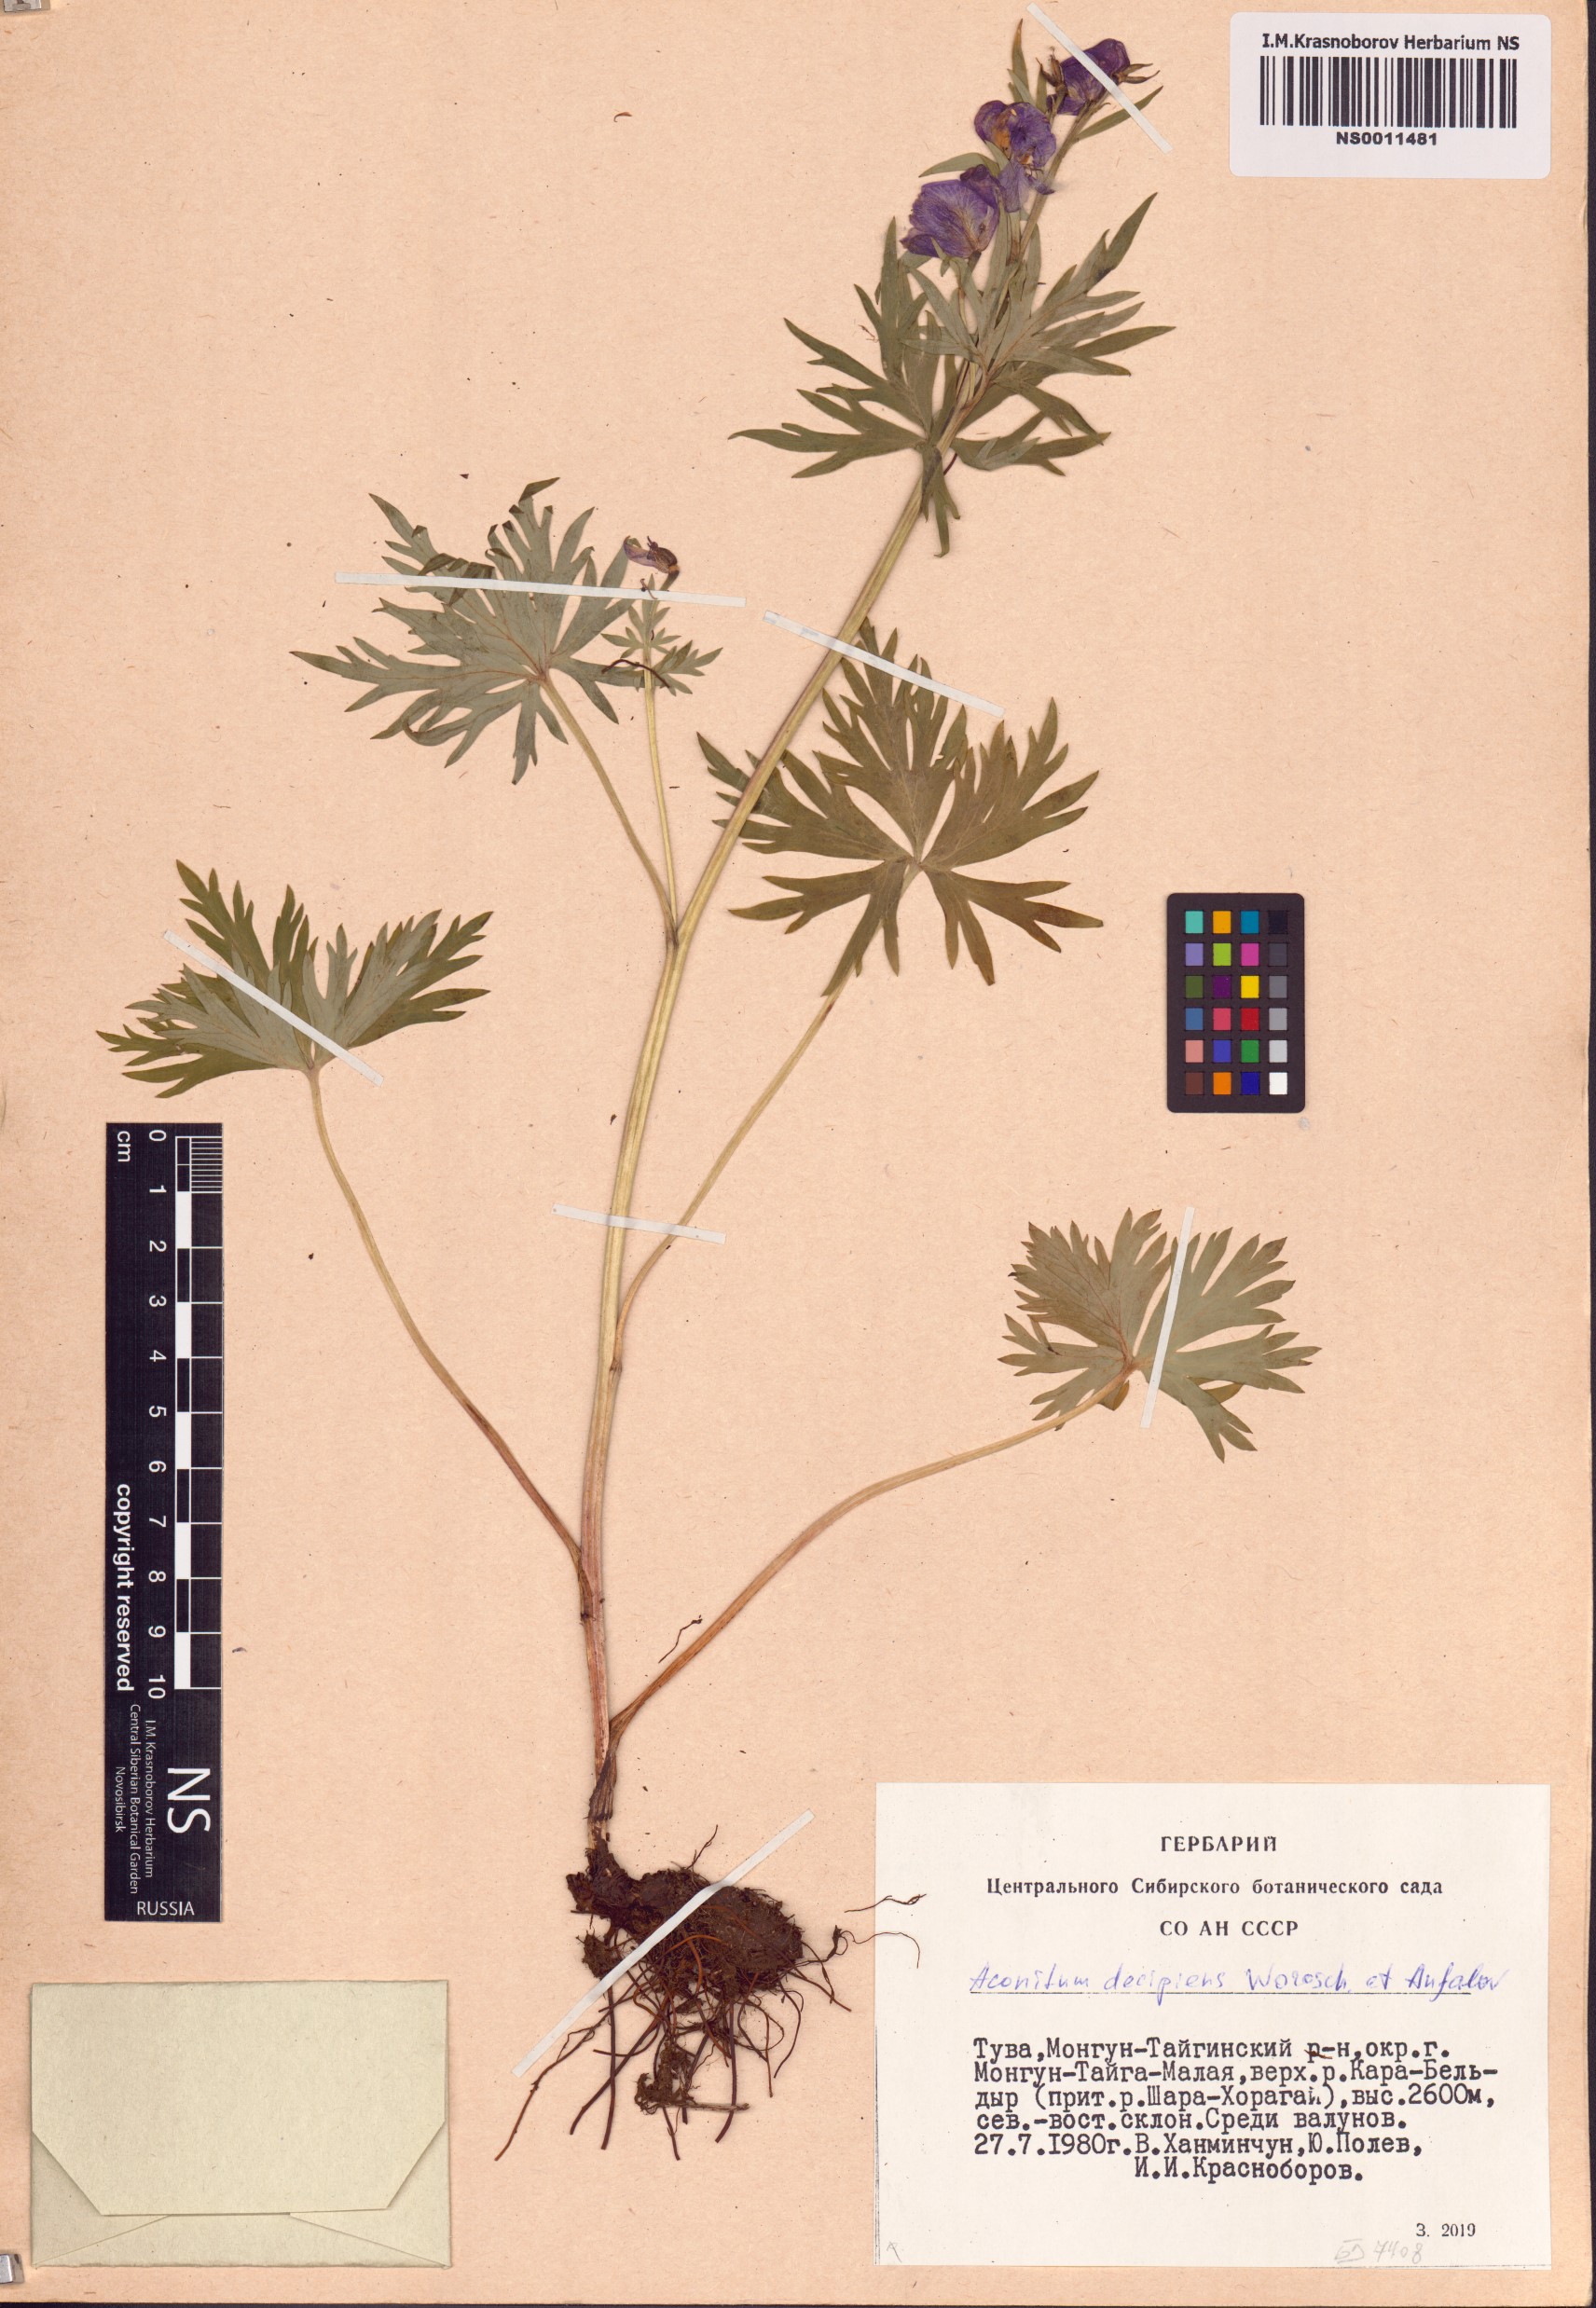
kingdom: Plantae
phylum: Tracheophyta
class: Magnoliopsida
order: Ranunculales
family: Ranunculaceae
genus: Aconitum
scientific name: Aconitum decipiens
